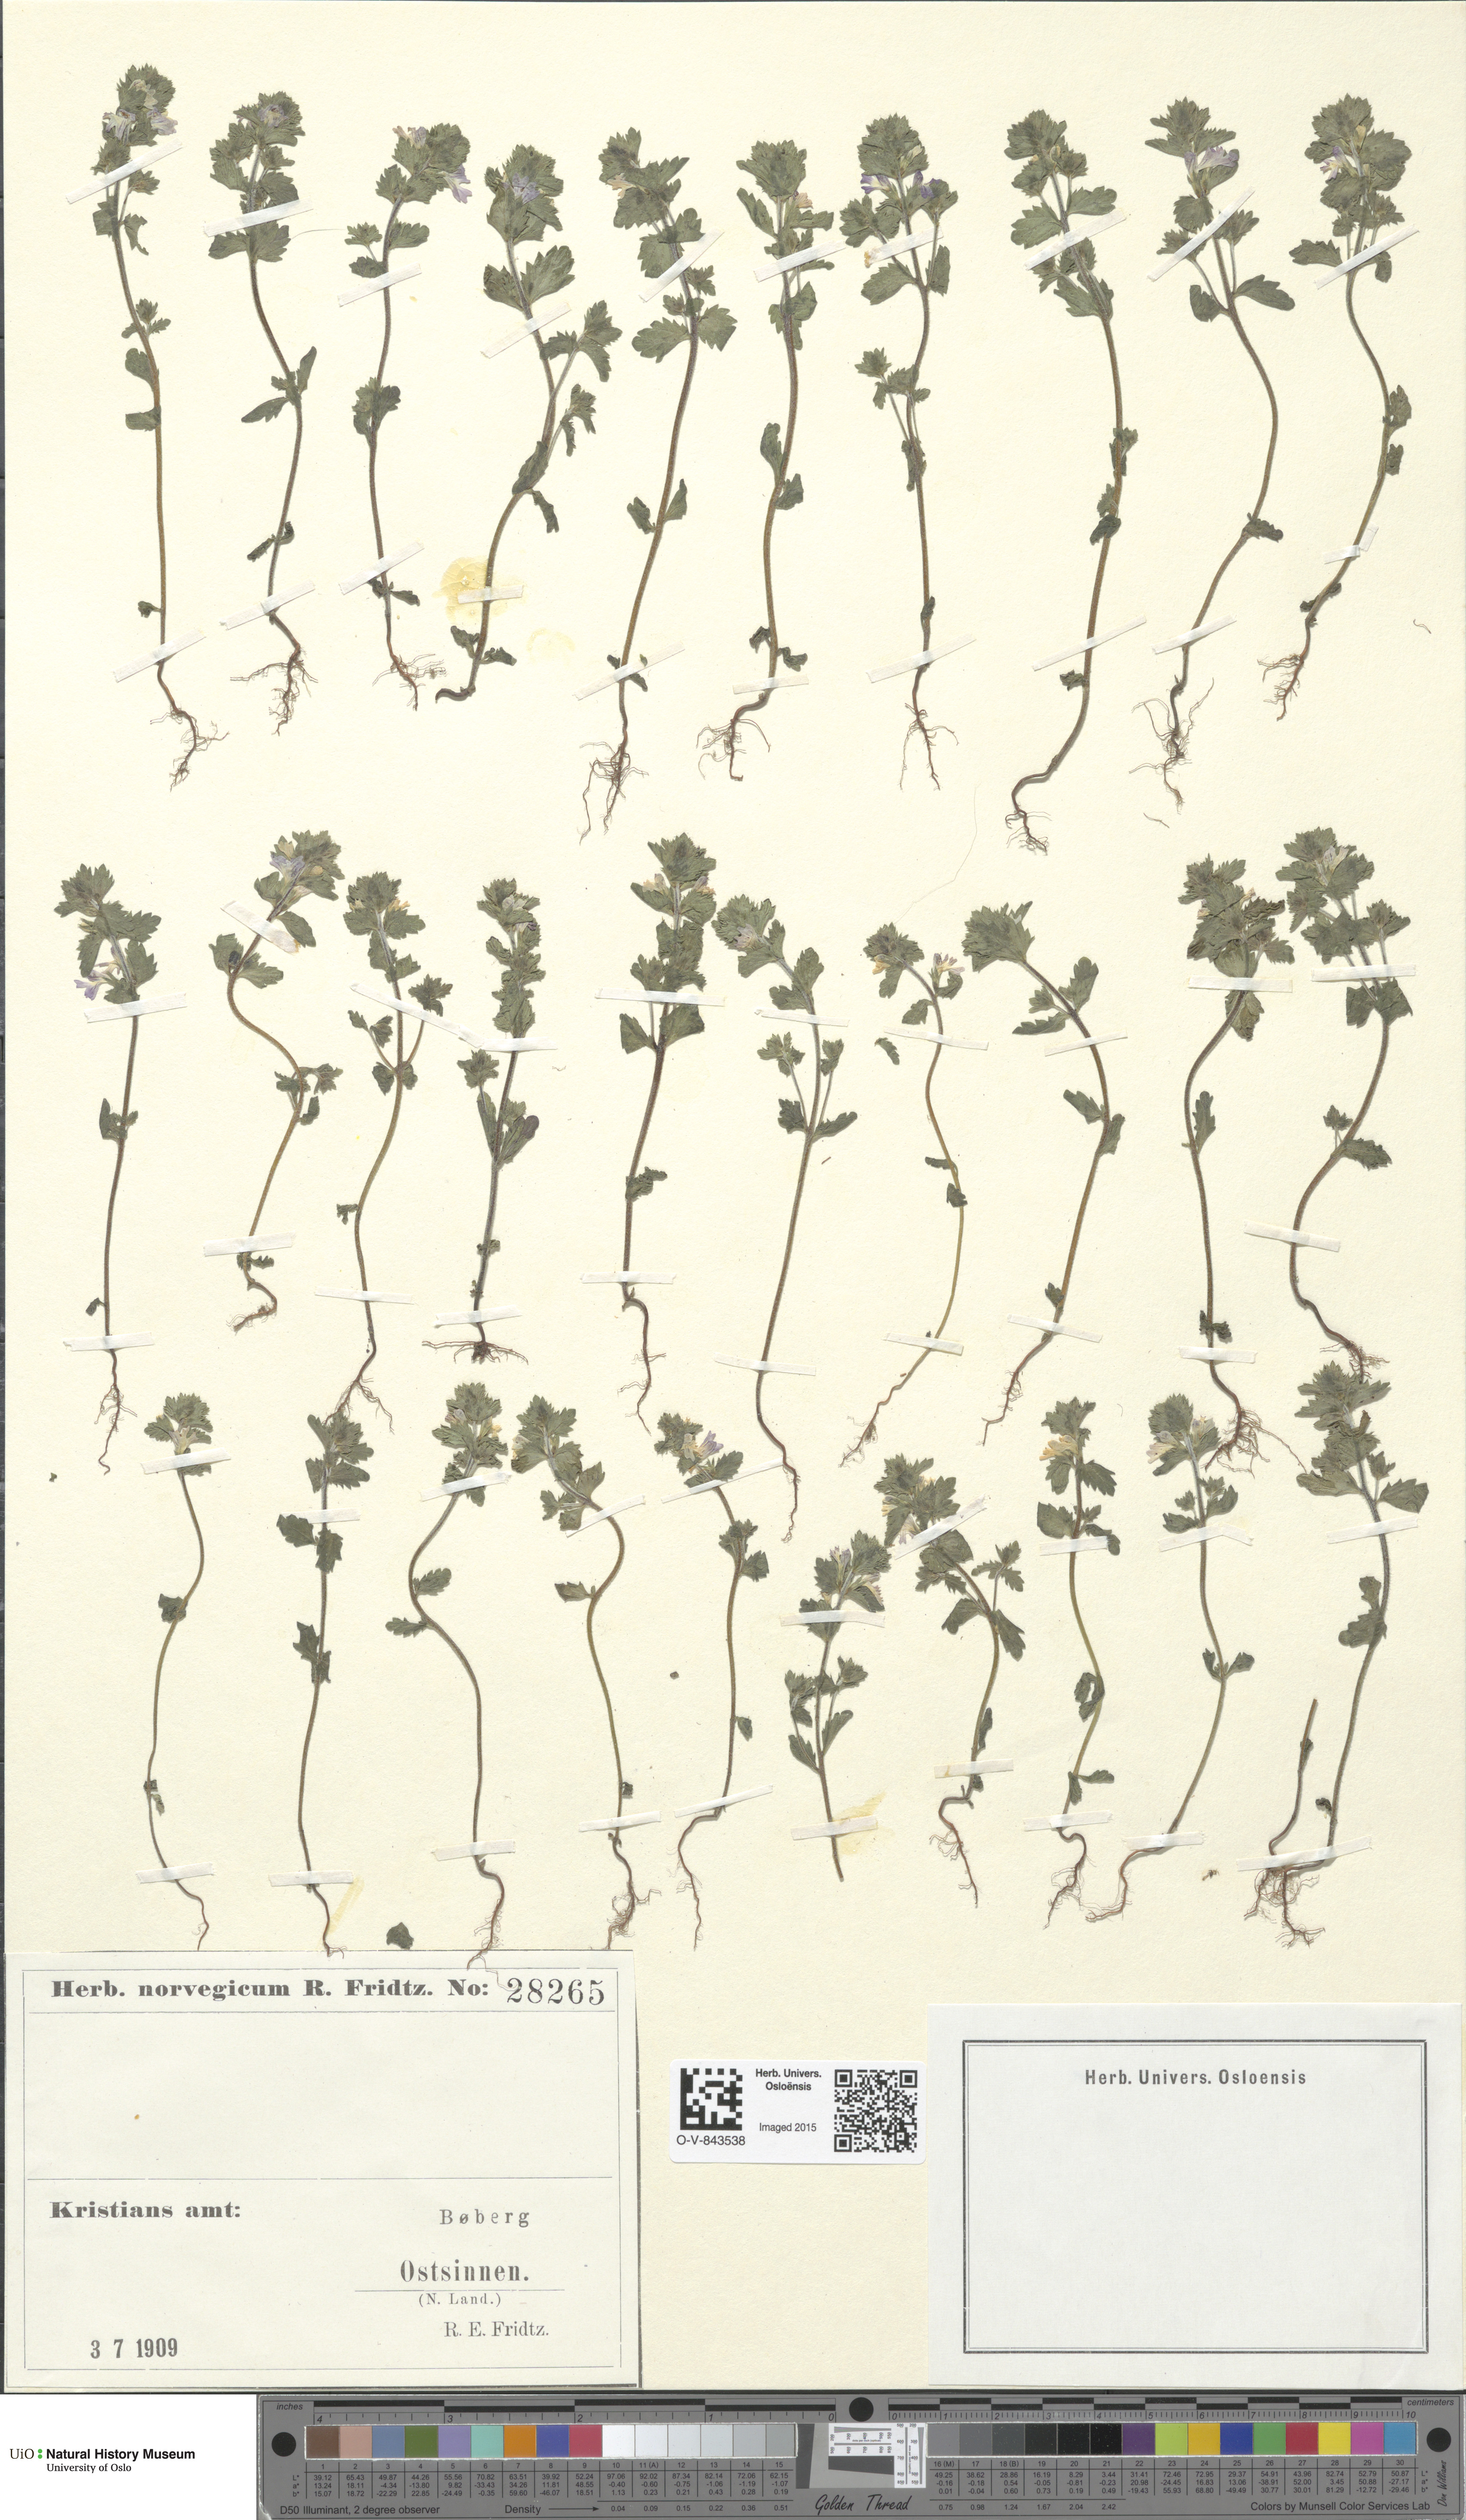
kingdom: Plantae
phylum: Tracheophyta
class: Magnoliopsida
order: Lamiales
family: Orobanchaceae
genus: Euphrasia
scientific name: Euphrasia
